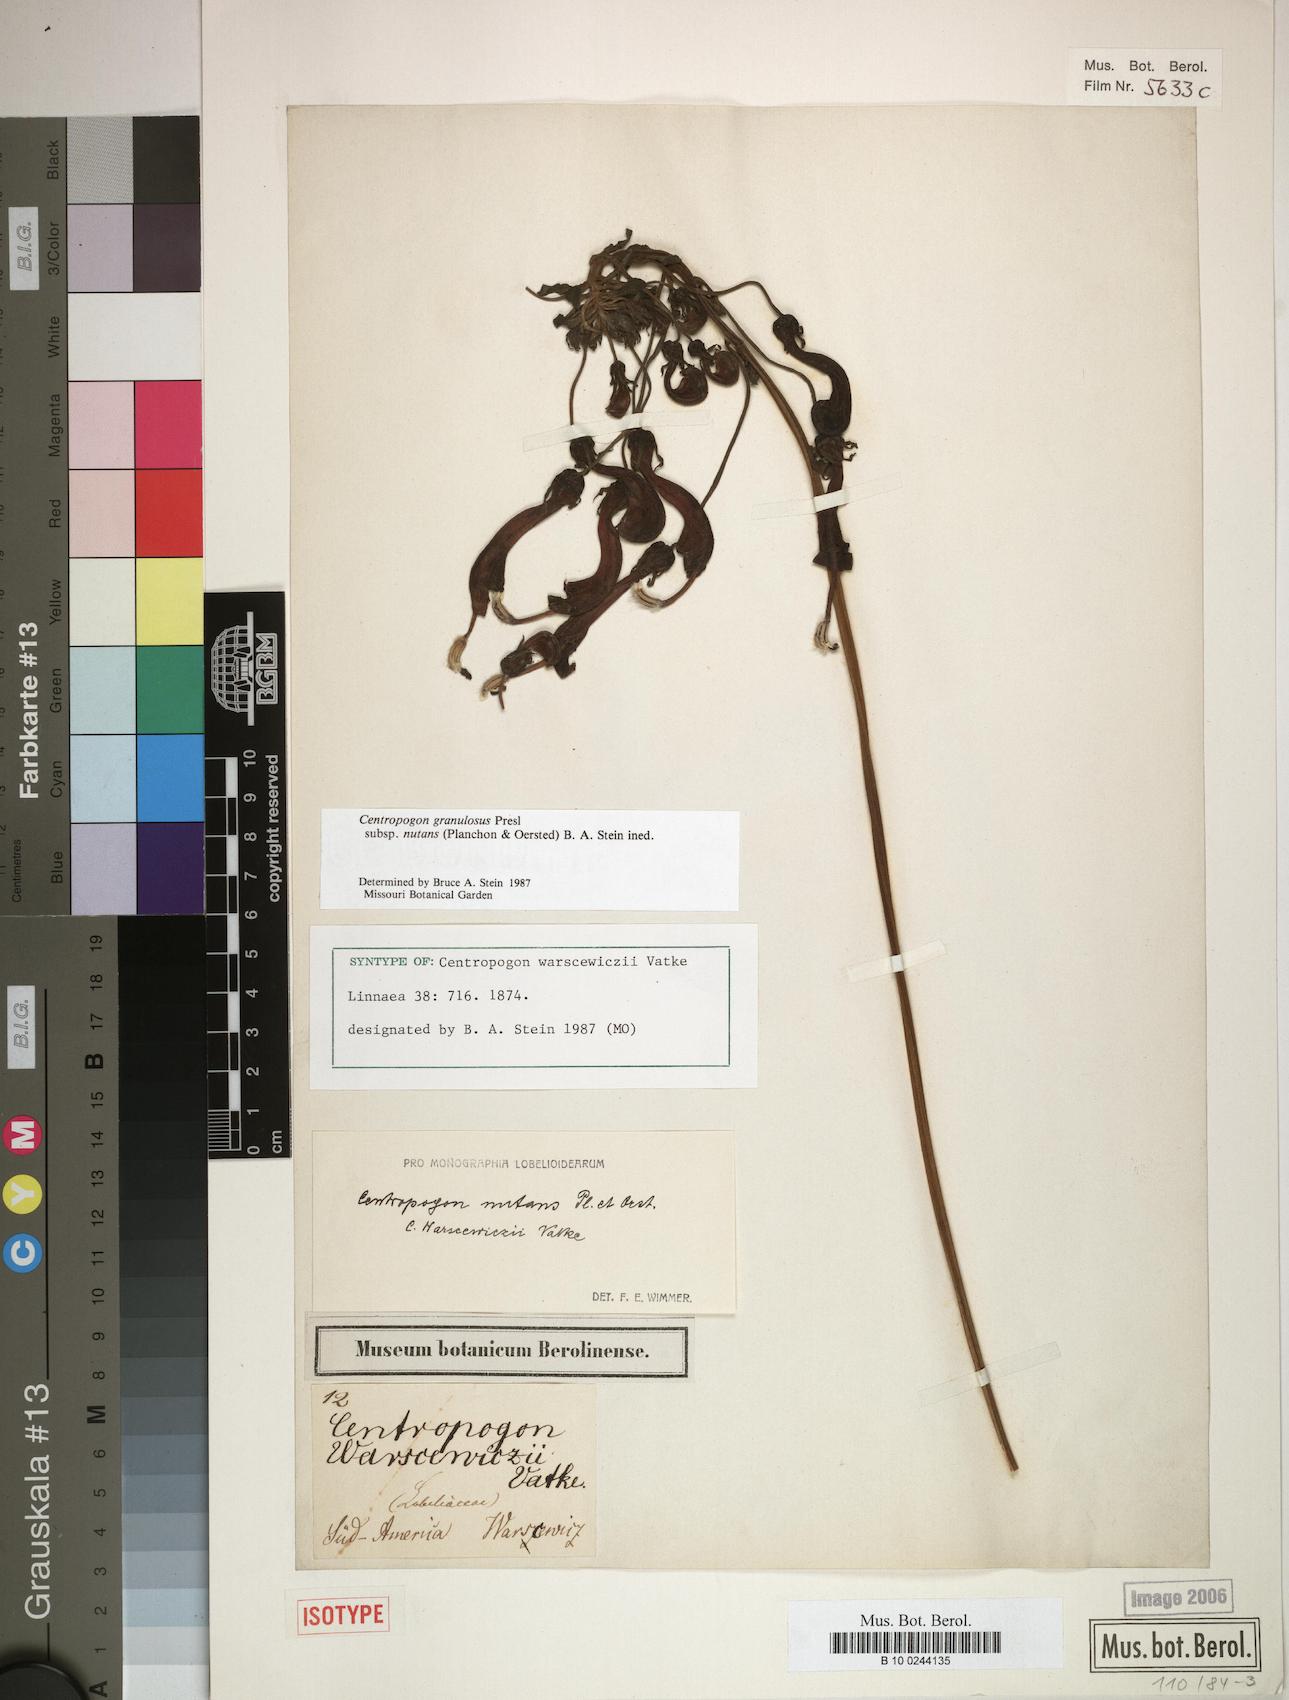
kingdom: Plantae
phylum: Tracheophyta
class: Magnoliopsida
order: Asterales
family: Campanulaceae
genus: Centropogon
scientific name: Centropogon granulosus
